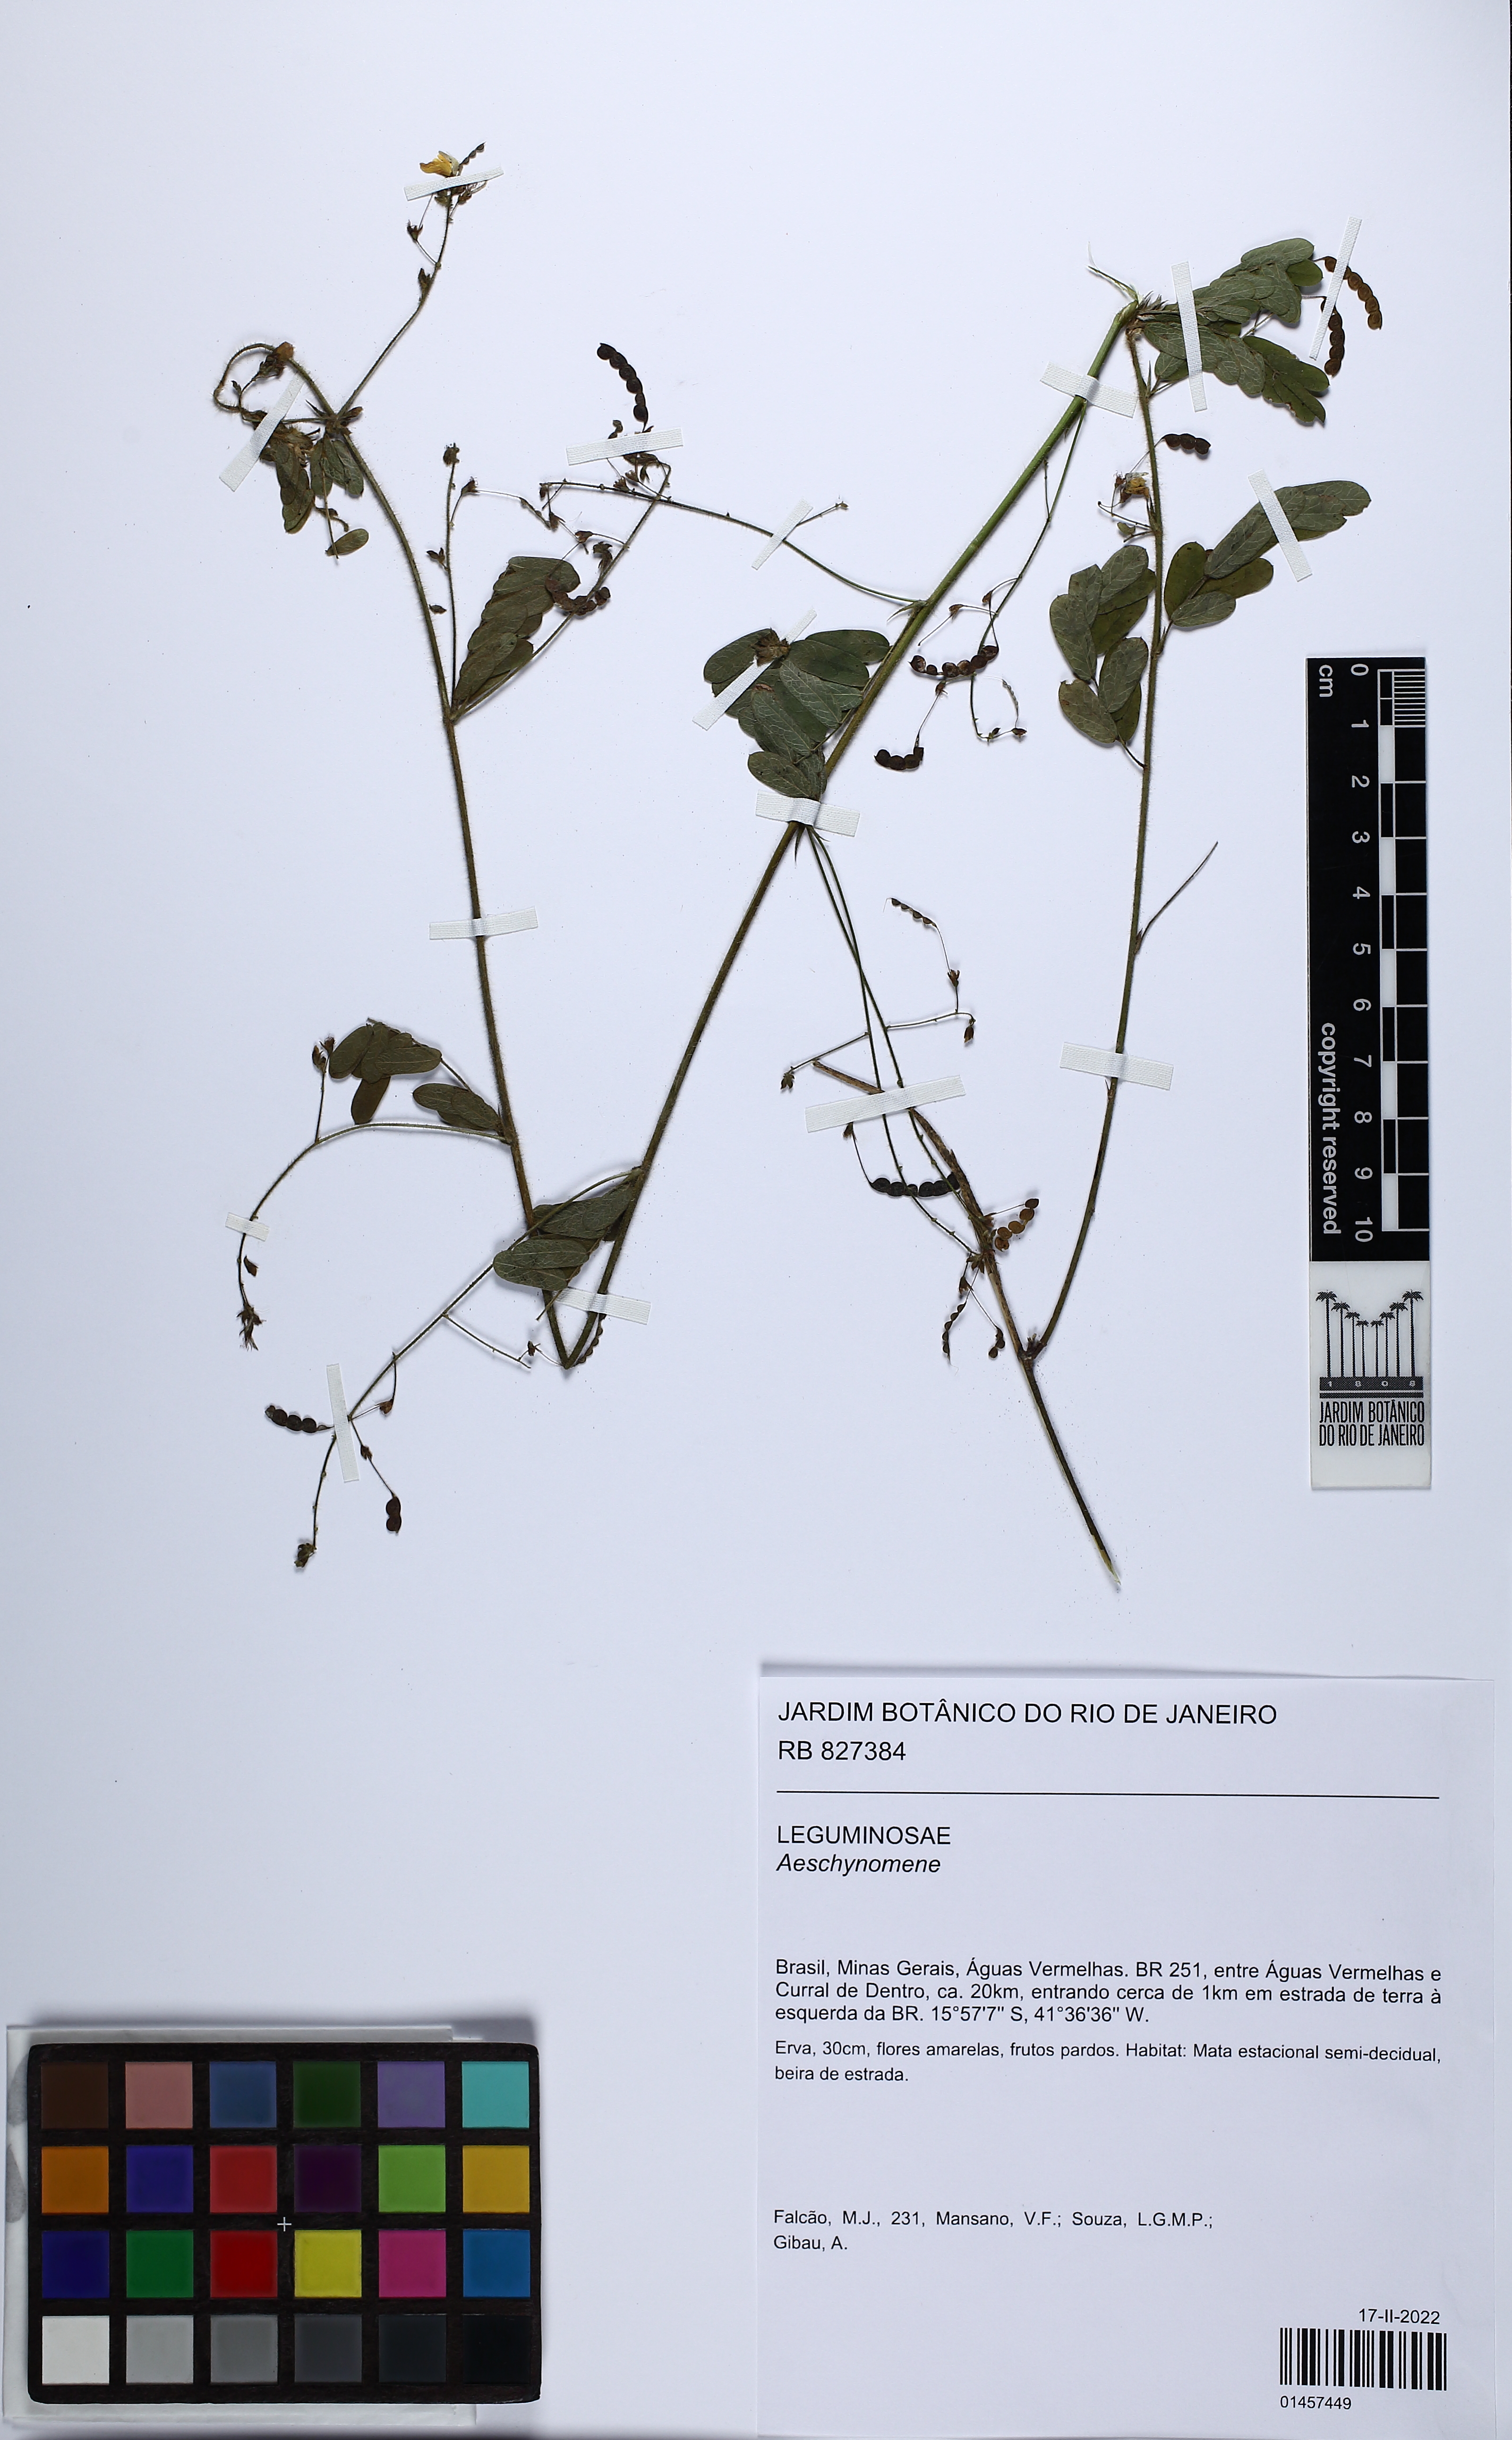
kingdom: Plantae
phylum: Tracheophyta
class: Magnoliopsida
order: Fabales
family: Fabaceae
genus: Aeschynomene
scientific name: Aeschynomene
